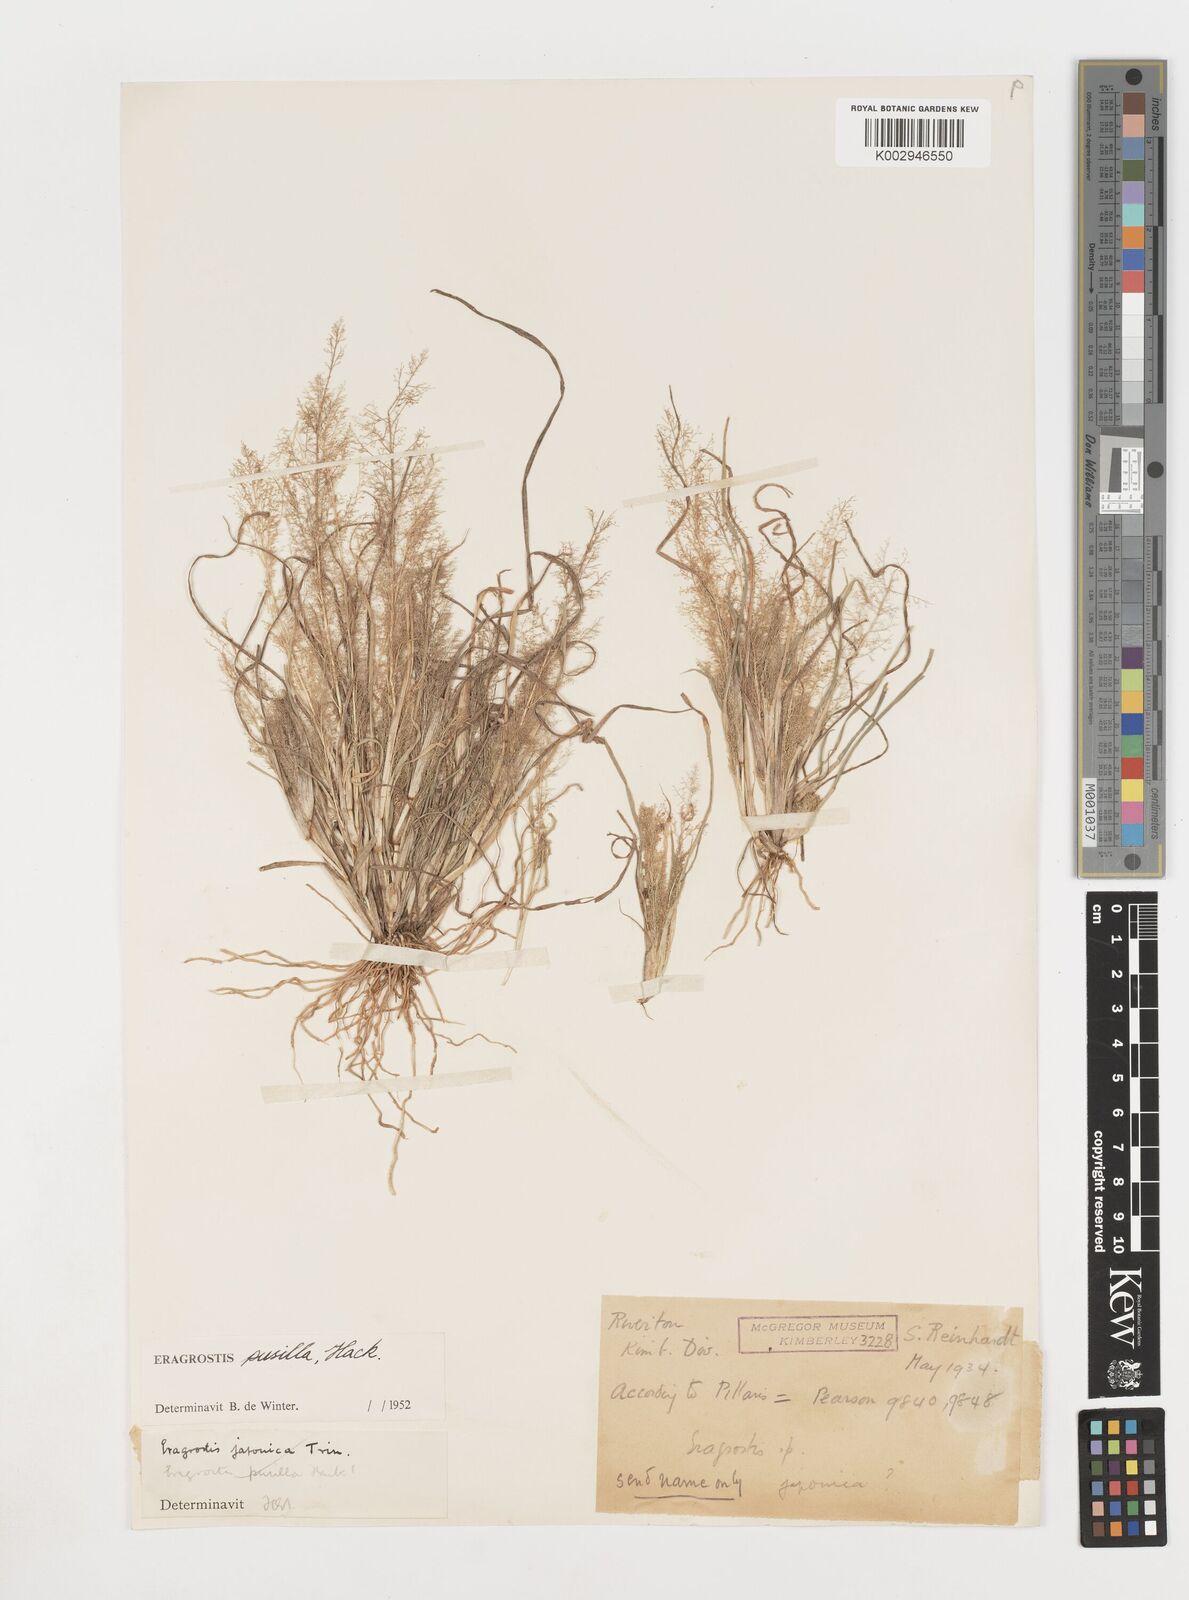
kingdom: Plantae
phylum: Tracheophyta
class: Liliopsida
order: Poales
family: Poaceae
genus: Eragrostis
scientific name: Eragrostis pusilla
